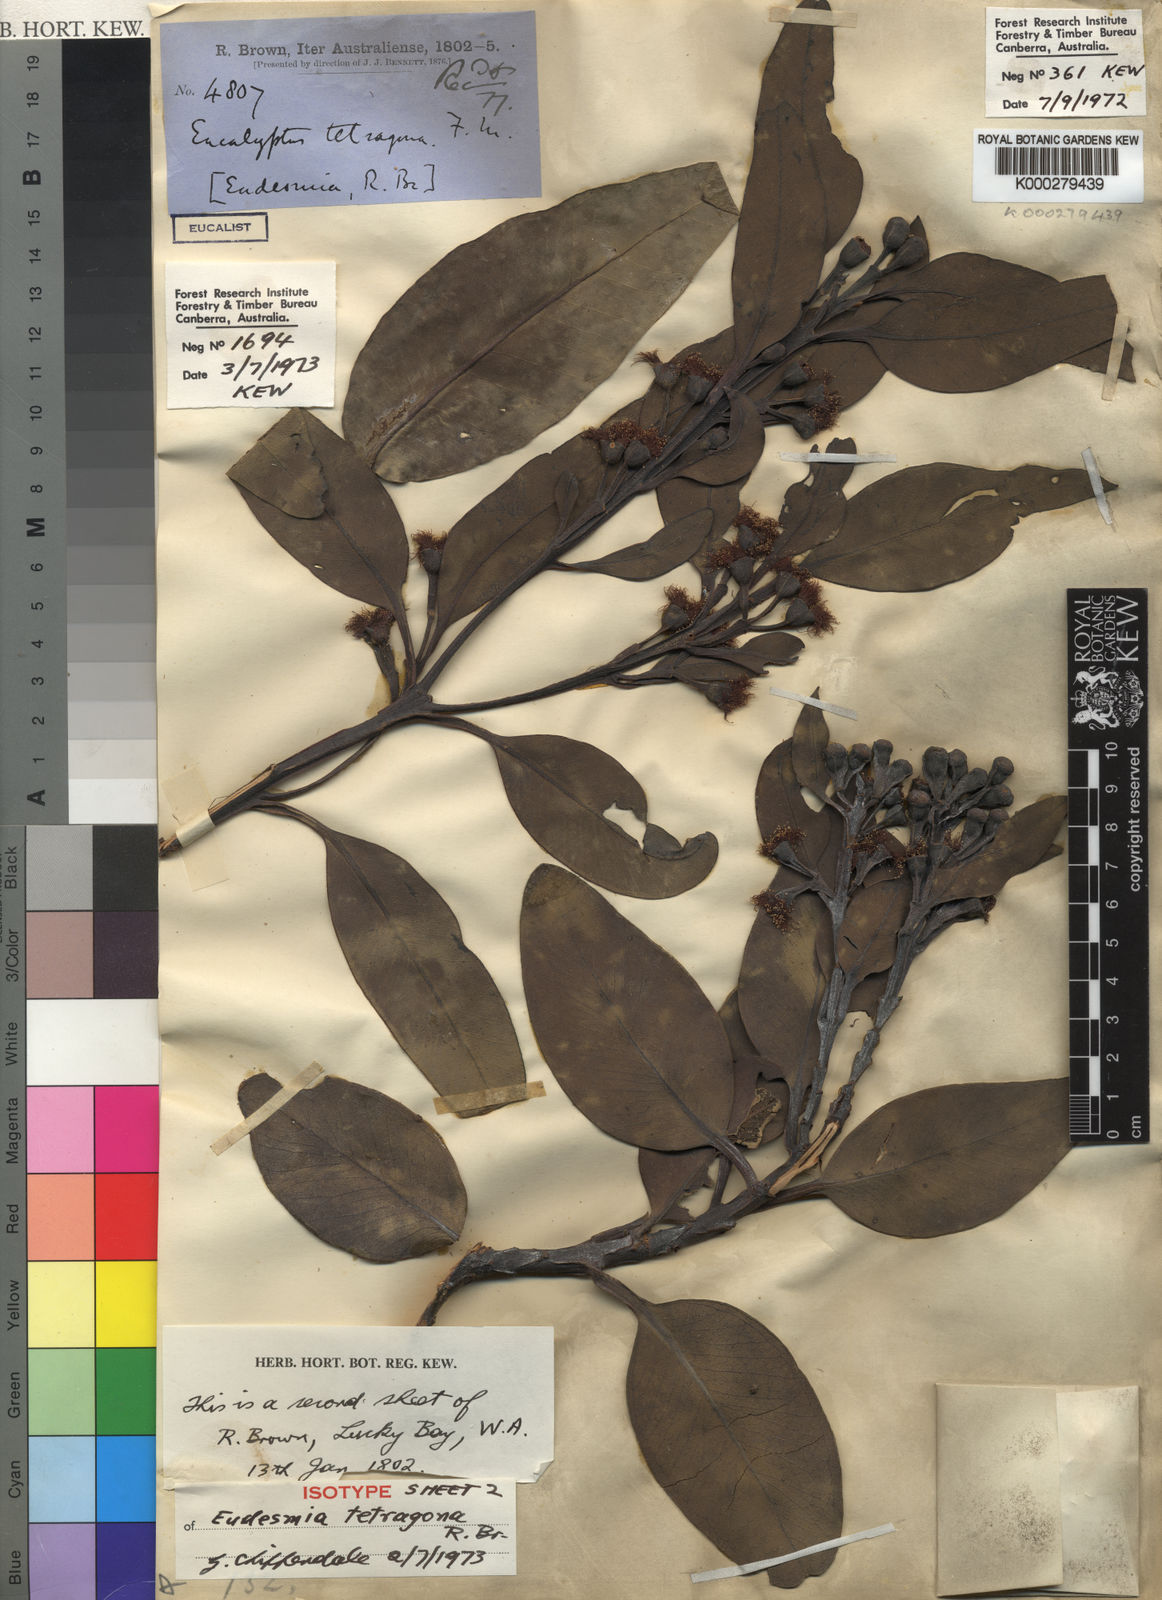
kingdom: Plantae
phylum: Tracheophyta
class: Magnoliopsida
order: Myrtales
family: Myrtaceae
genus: Eucalyptus
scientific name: Eucalyptus tetragona
